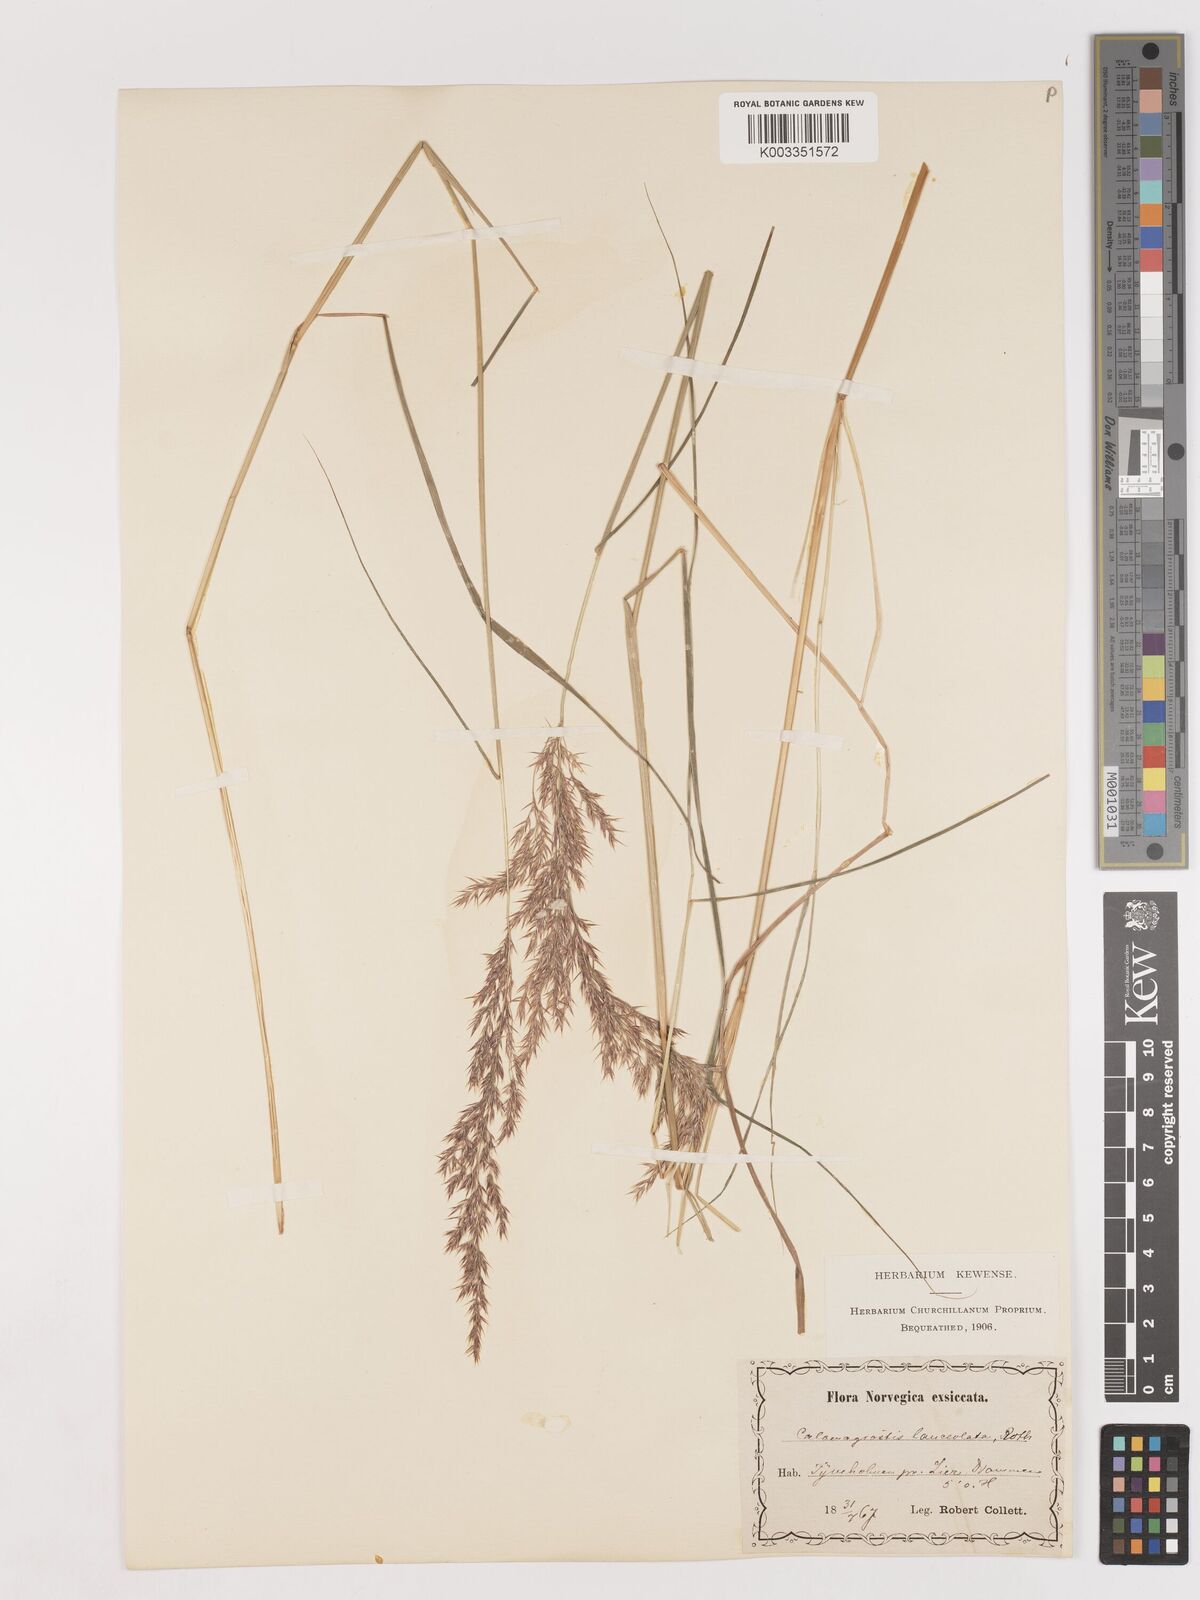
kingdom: Plantae
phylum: Tracheophyta
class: Liliopsida
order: Poales
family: Poaceae
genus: Calamagrostis
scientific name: Calamagrostis canescens
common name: Purple small-reed
